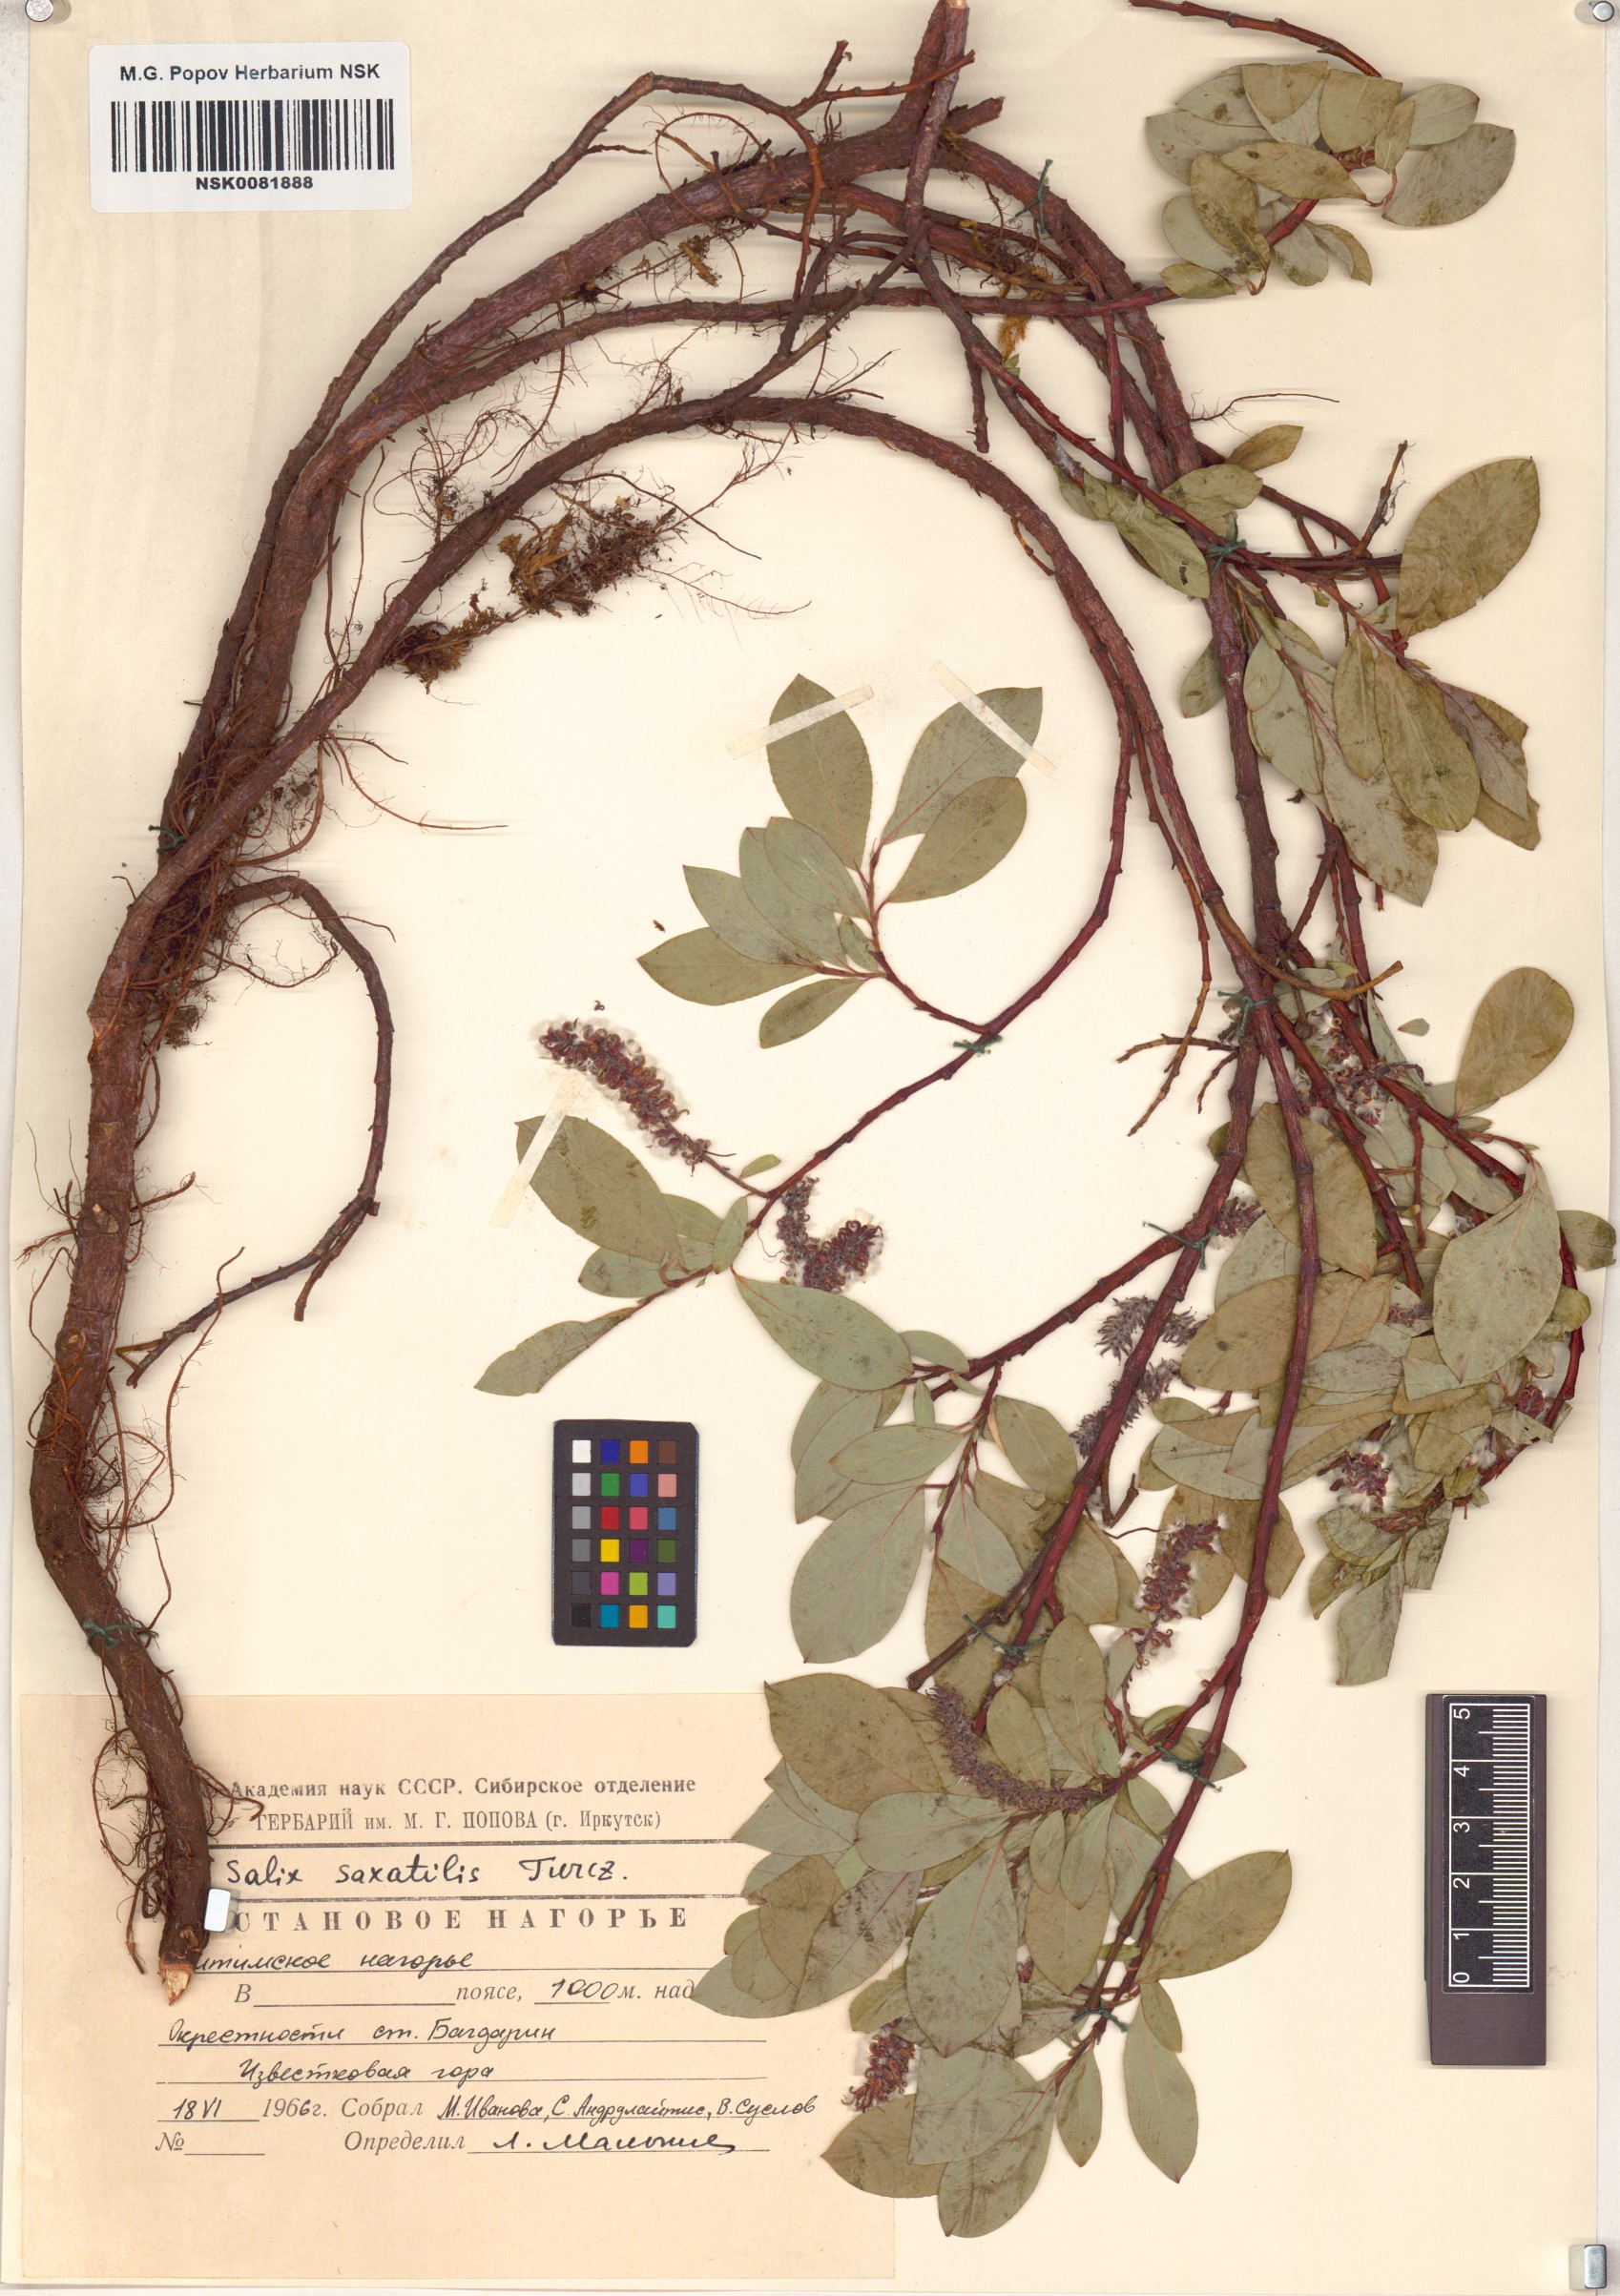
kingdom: Plantae
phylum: Tracheophyta
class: Magnoliopsida
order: Malpighiales
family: Salicaceae
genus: Salix
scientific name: Salix saxatilis
